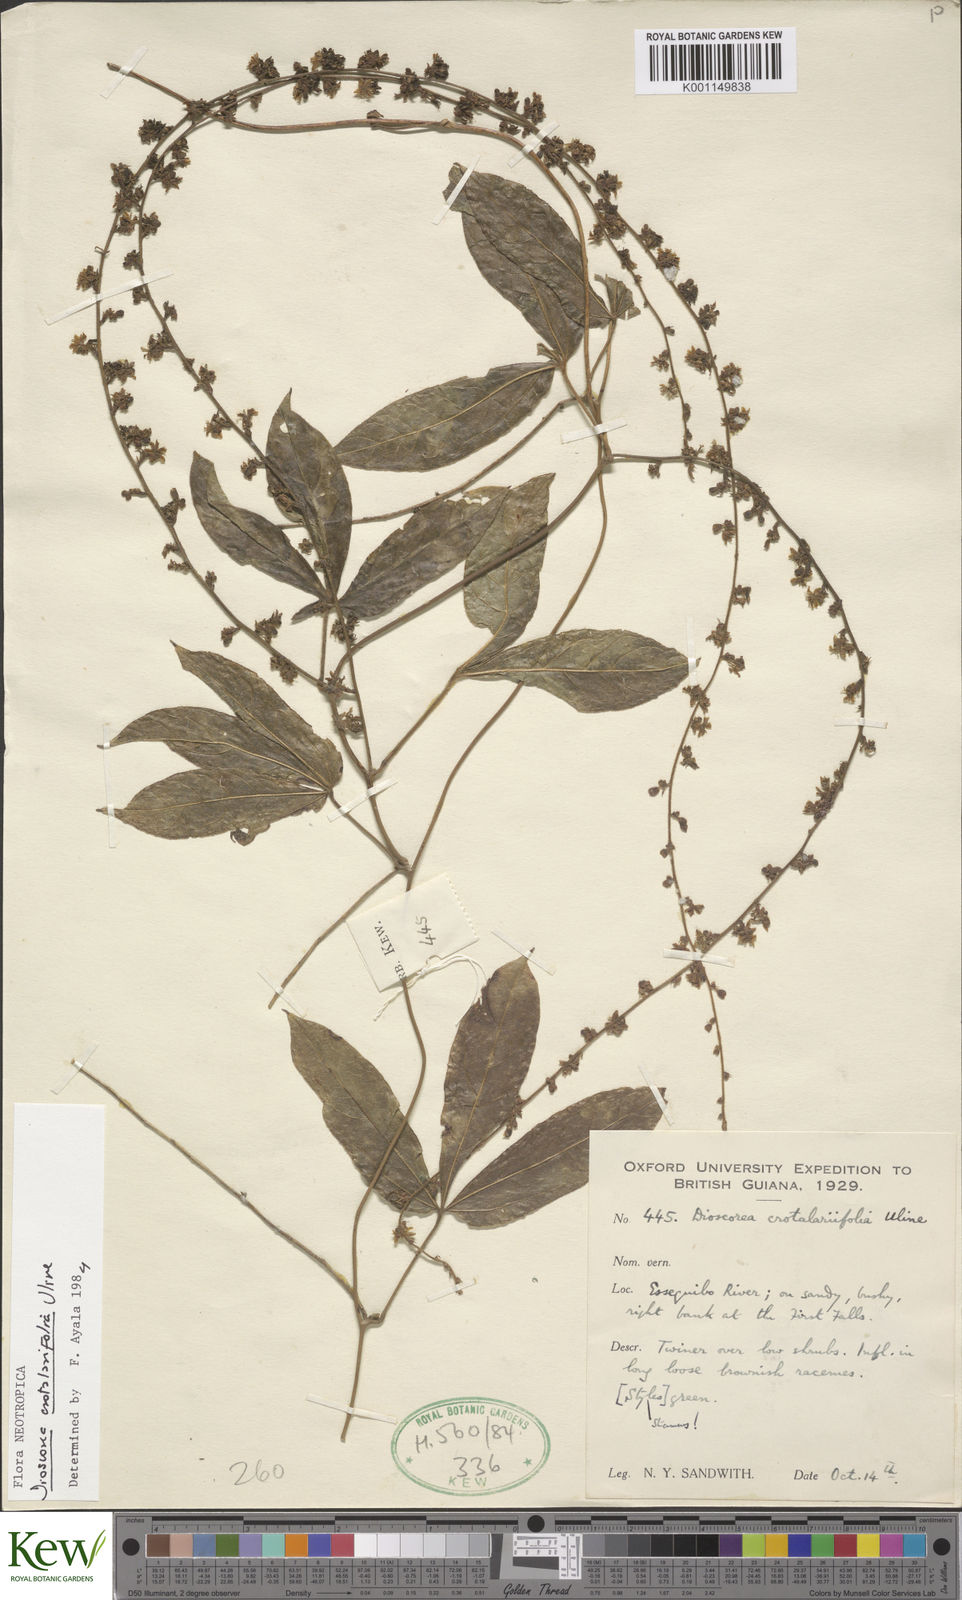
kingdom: Plantae
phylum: Tracheophyta
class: Liliopsida
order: Dioscoreales
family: Dioscoreaceae
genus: Dioscorea
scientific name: Dioscorea crotalariifolia
